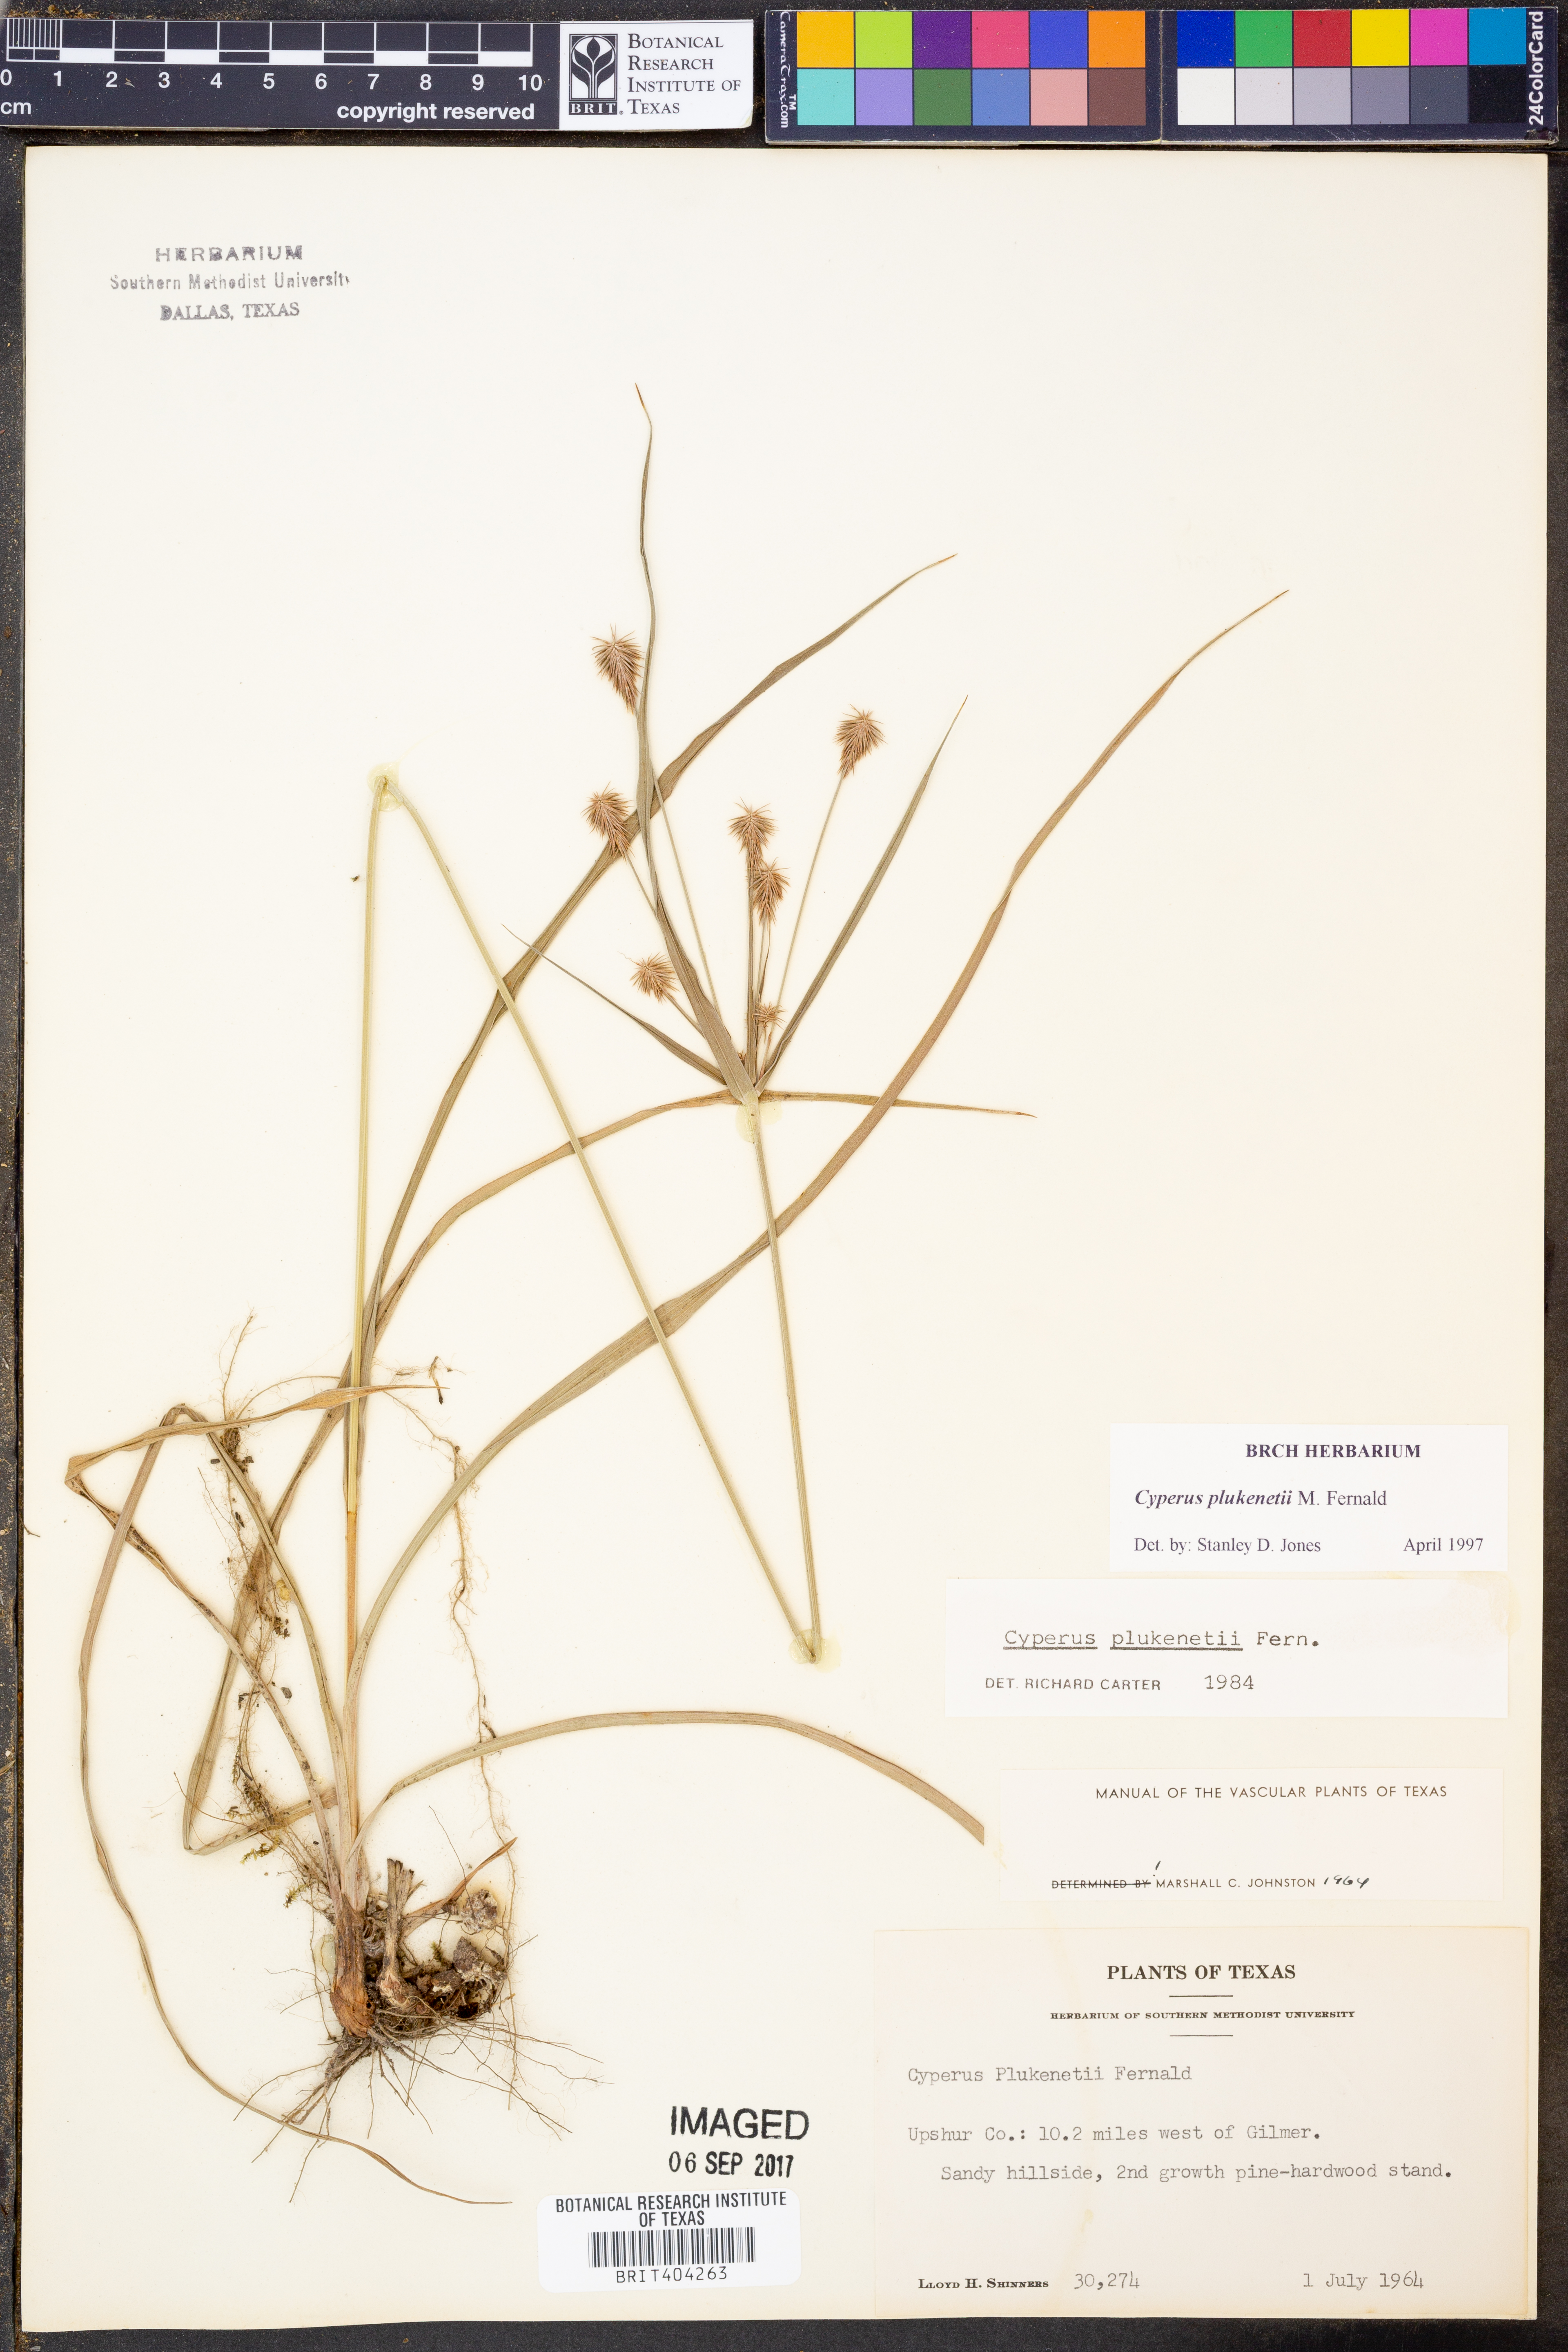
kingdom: Plantae
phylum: Tracheophyta
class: Liliopsida
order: Poales
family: Cyperaceae
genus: Cyperus
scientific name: Cyperus plukenetii
